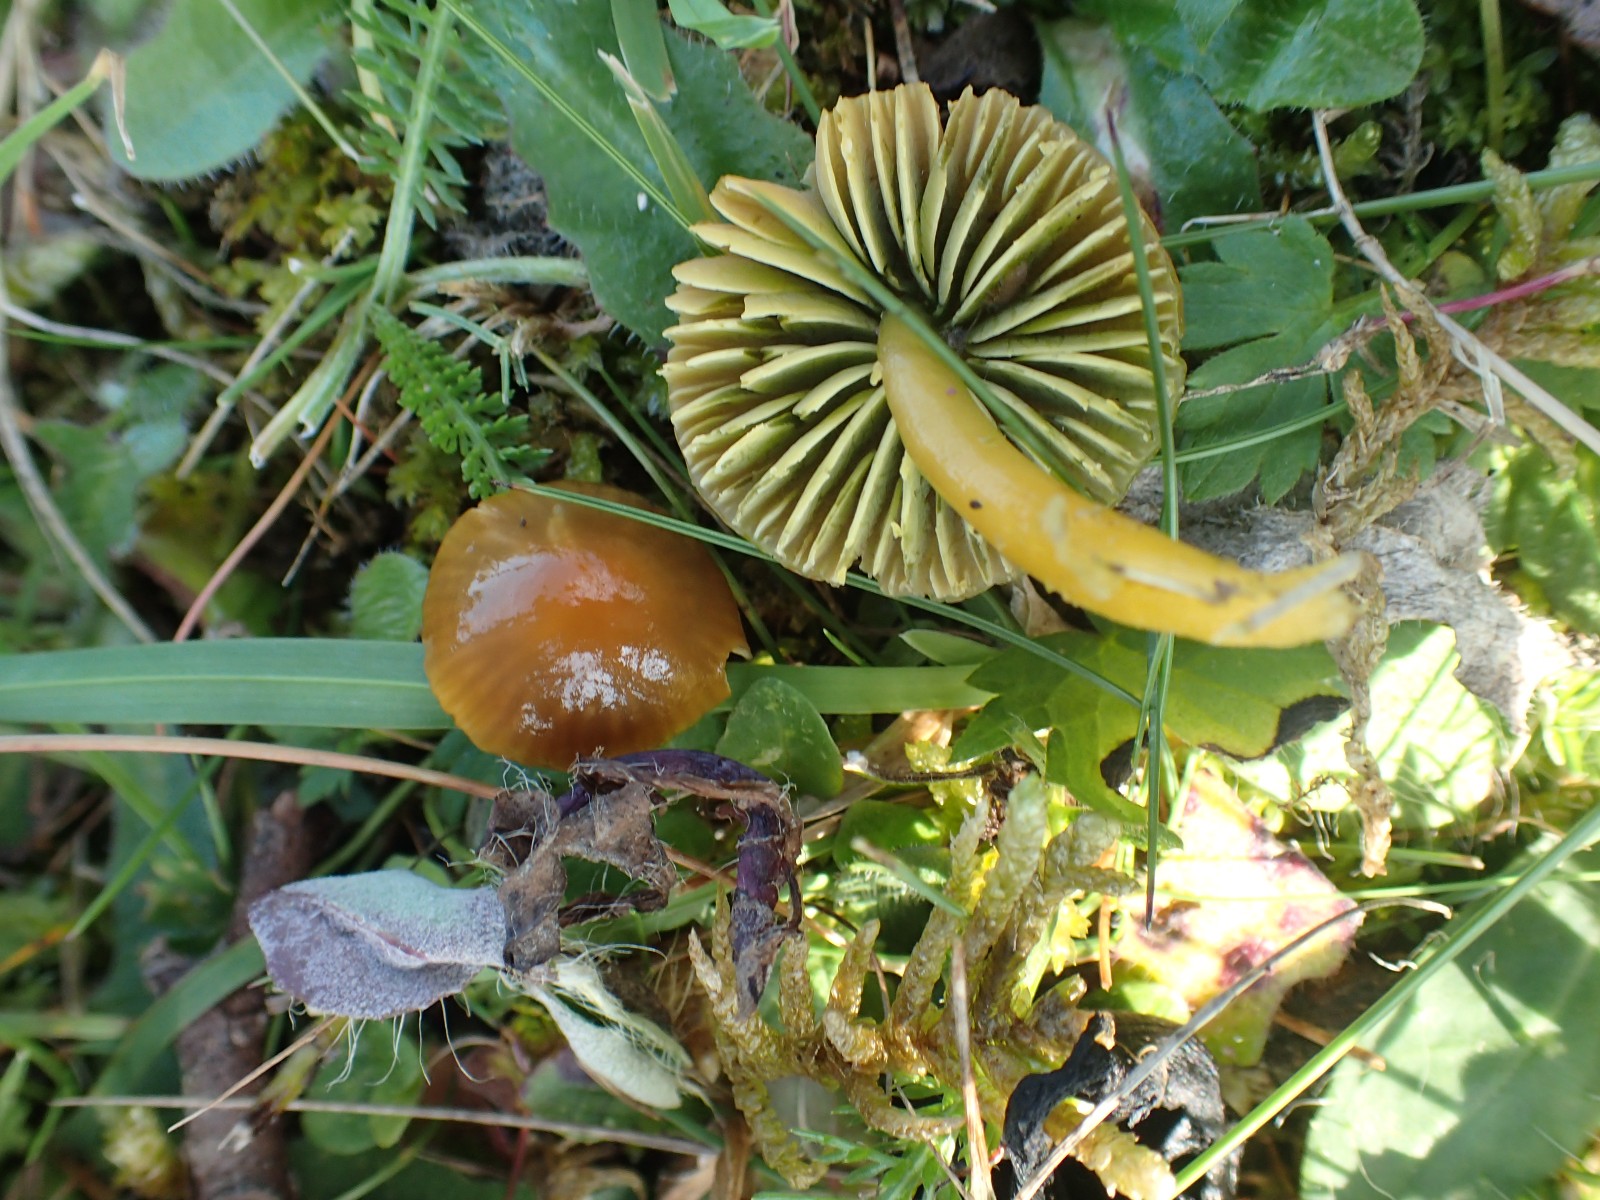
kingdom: Fungi
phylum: Basidiomycota
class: Agaricomycetes
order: Agaricales
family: Hygrophoraceae
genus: Gliophorus
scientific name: Gliophorus psittacinus
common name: papegøje-vokshat
